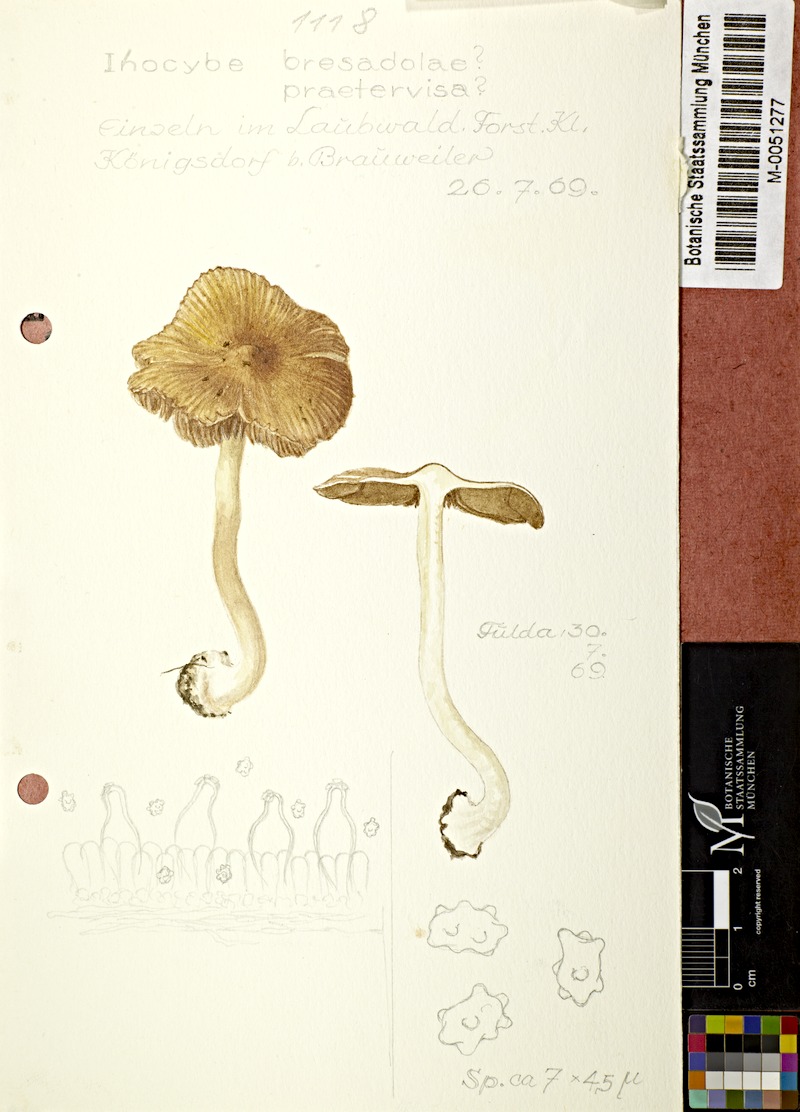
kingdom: Fungi
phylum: Basidiomycota
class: Agaricomycetes
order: Agaricales
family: Inocybaceae
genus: Inocybe
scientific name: Inocybe bresadolae
